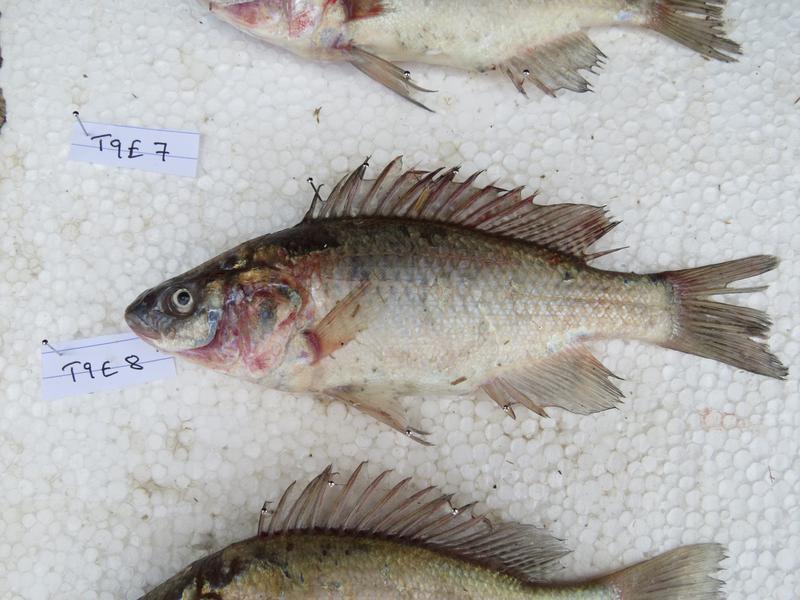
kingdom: Animalia
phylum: Chordata
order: Perciformes
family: Cichlidae
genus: Oreochromis
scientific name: Oreochromis amphimelas
